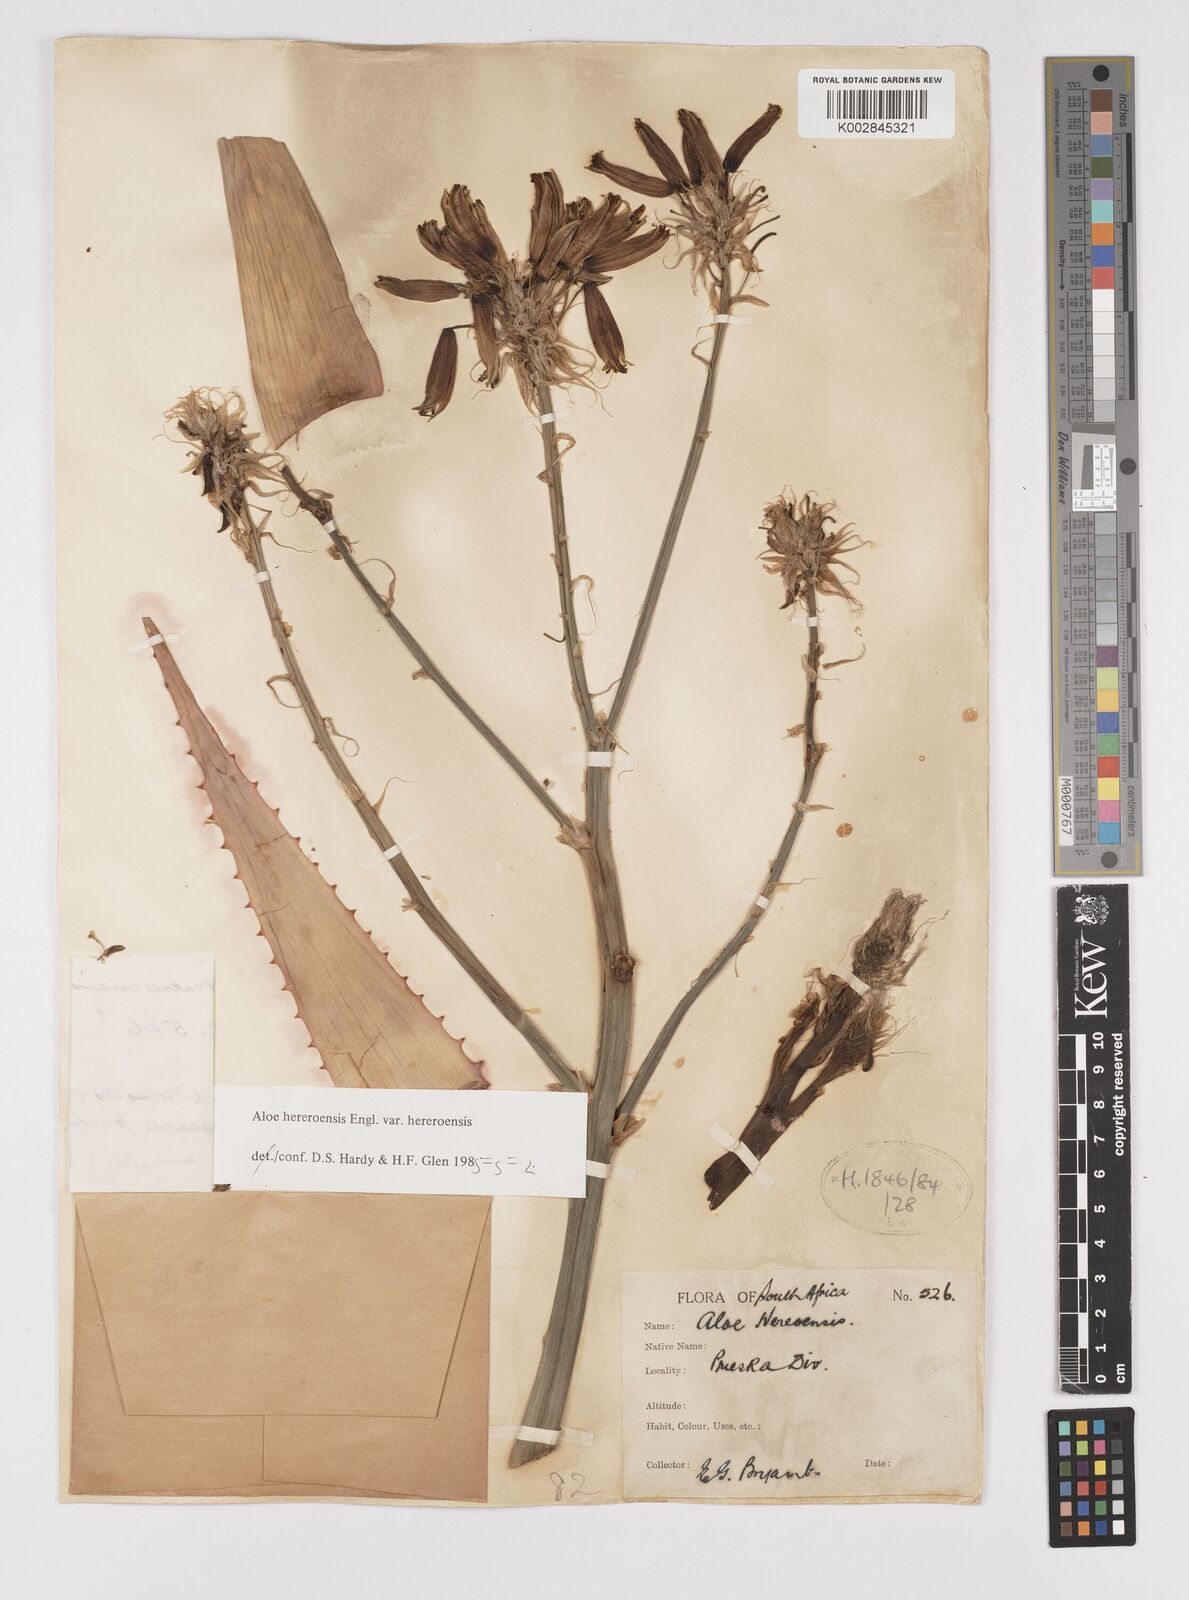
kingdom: Plantae
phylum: Tracheophyta
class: Liliopsida
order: Asparagales
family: Asphodelaceae
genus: Aloe
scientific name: Aloe hereroensis
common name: Herero aloe
